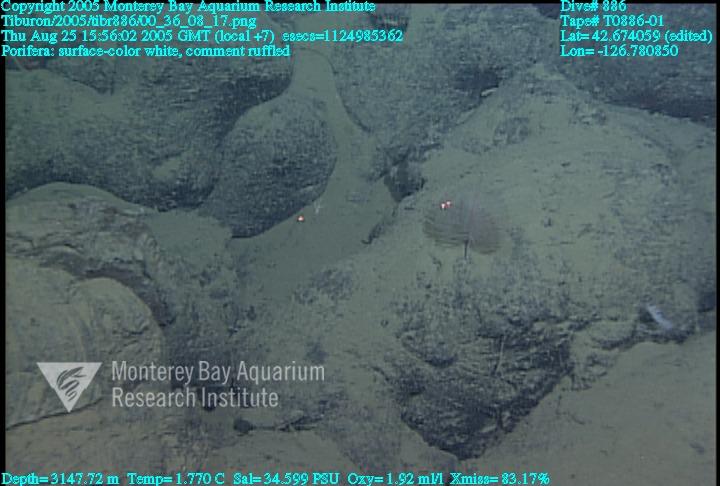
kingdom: Animalia
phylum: Porifera
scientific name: Porifera
